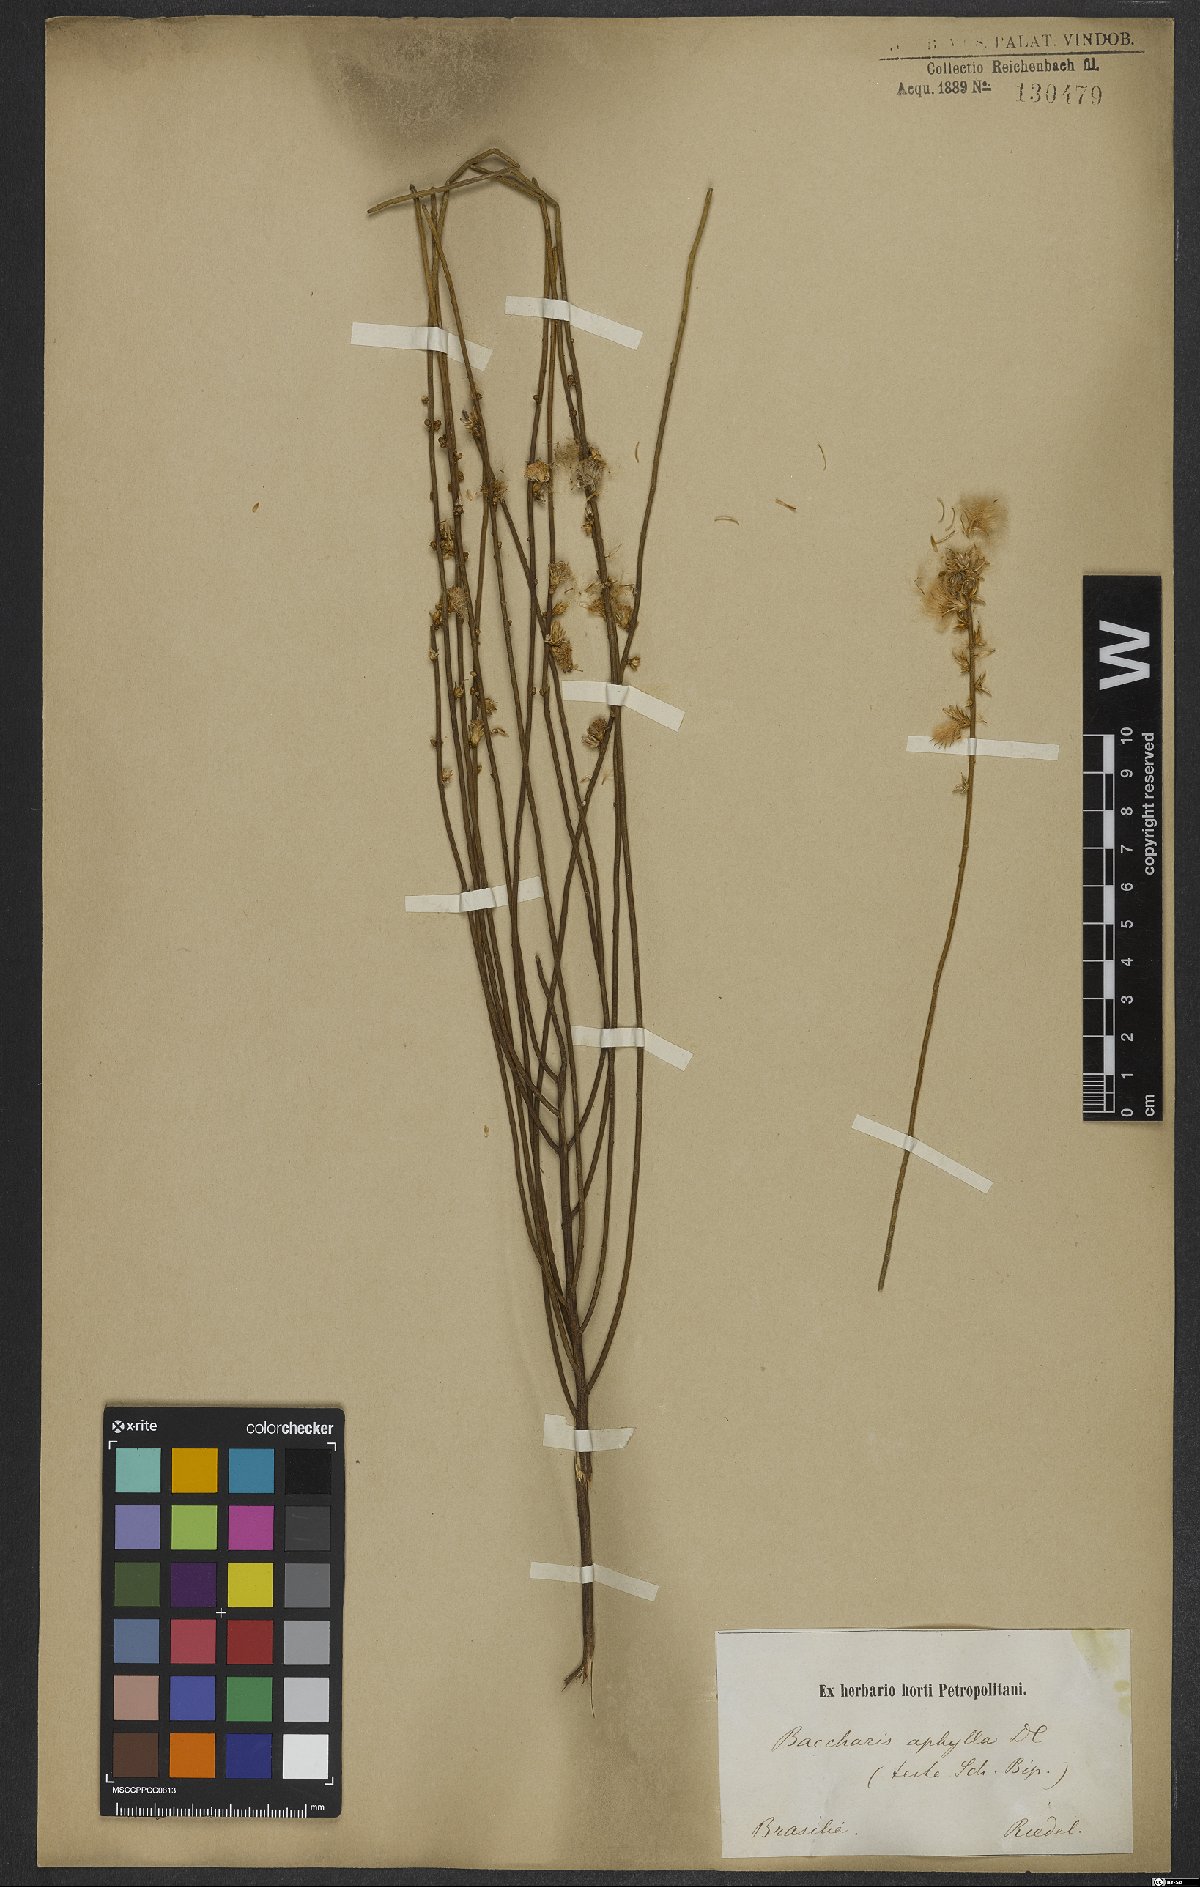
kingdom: Plantae
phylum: Tracheophyta
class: Magnoliopsida
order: Asterales
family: Asteraceae
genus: Baccharis
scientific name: Baccharis aphylla
